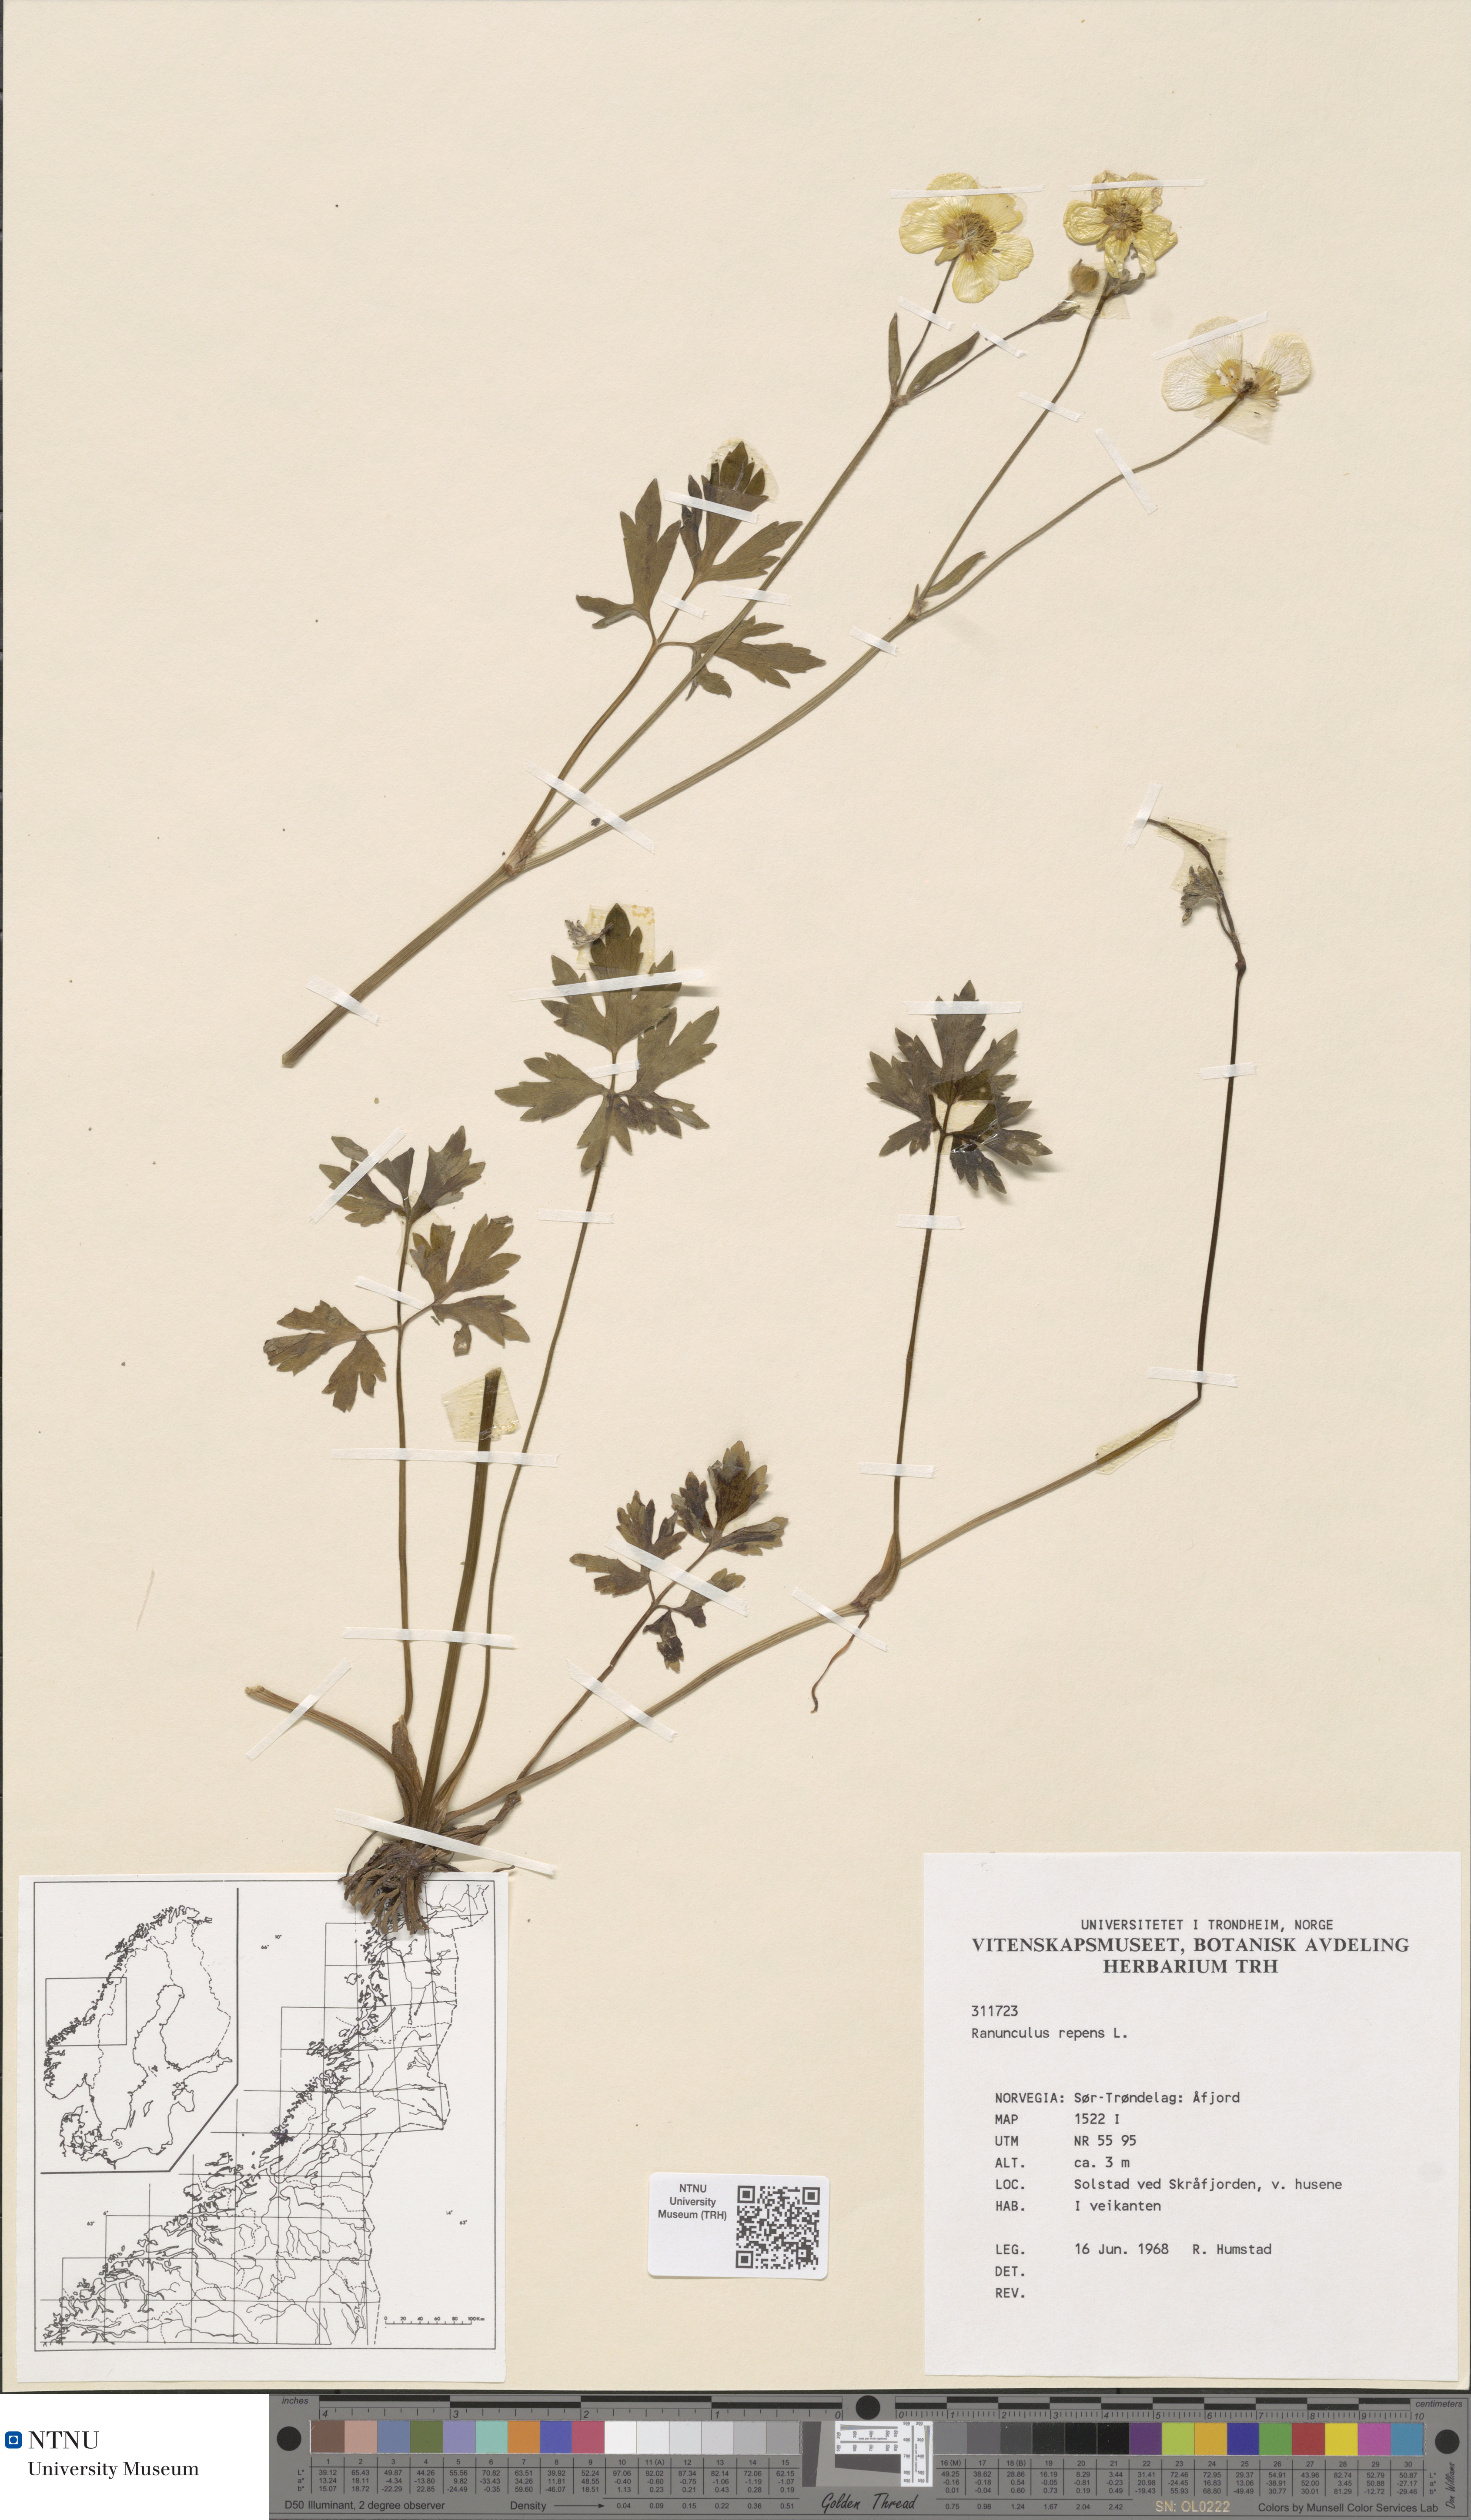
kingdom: Plantae
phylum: Tracheophyta
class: Magnoliopsida
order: Ranunculales
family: Ranunculaceae
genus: Ranunculus
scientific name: Ranunculus repens
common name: Creeping buttercup
